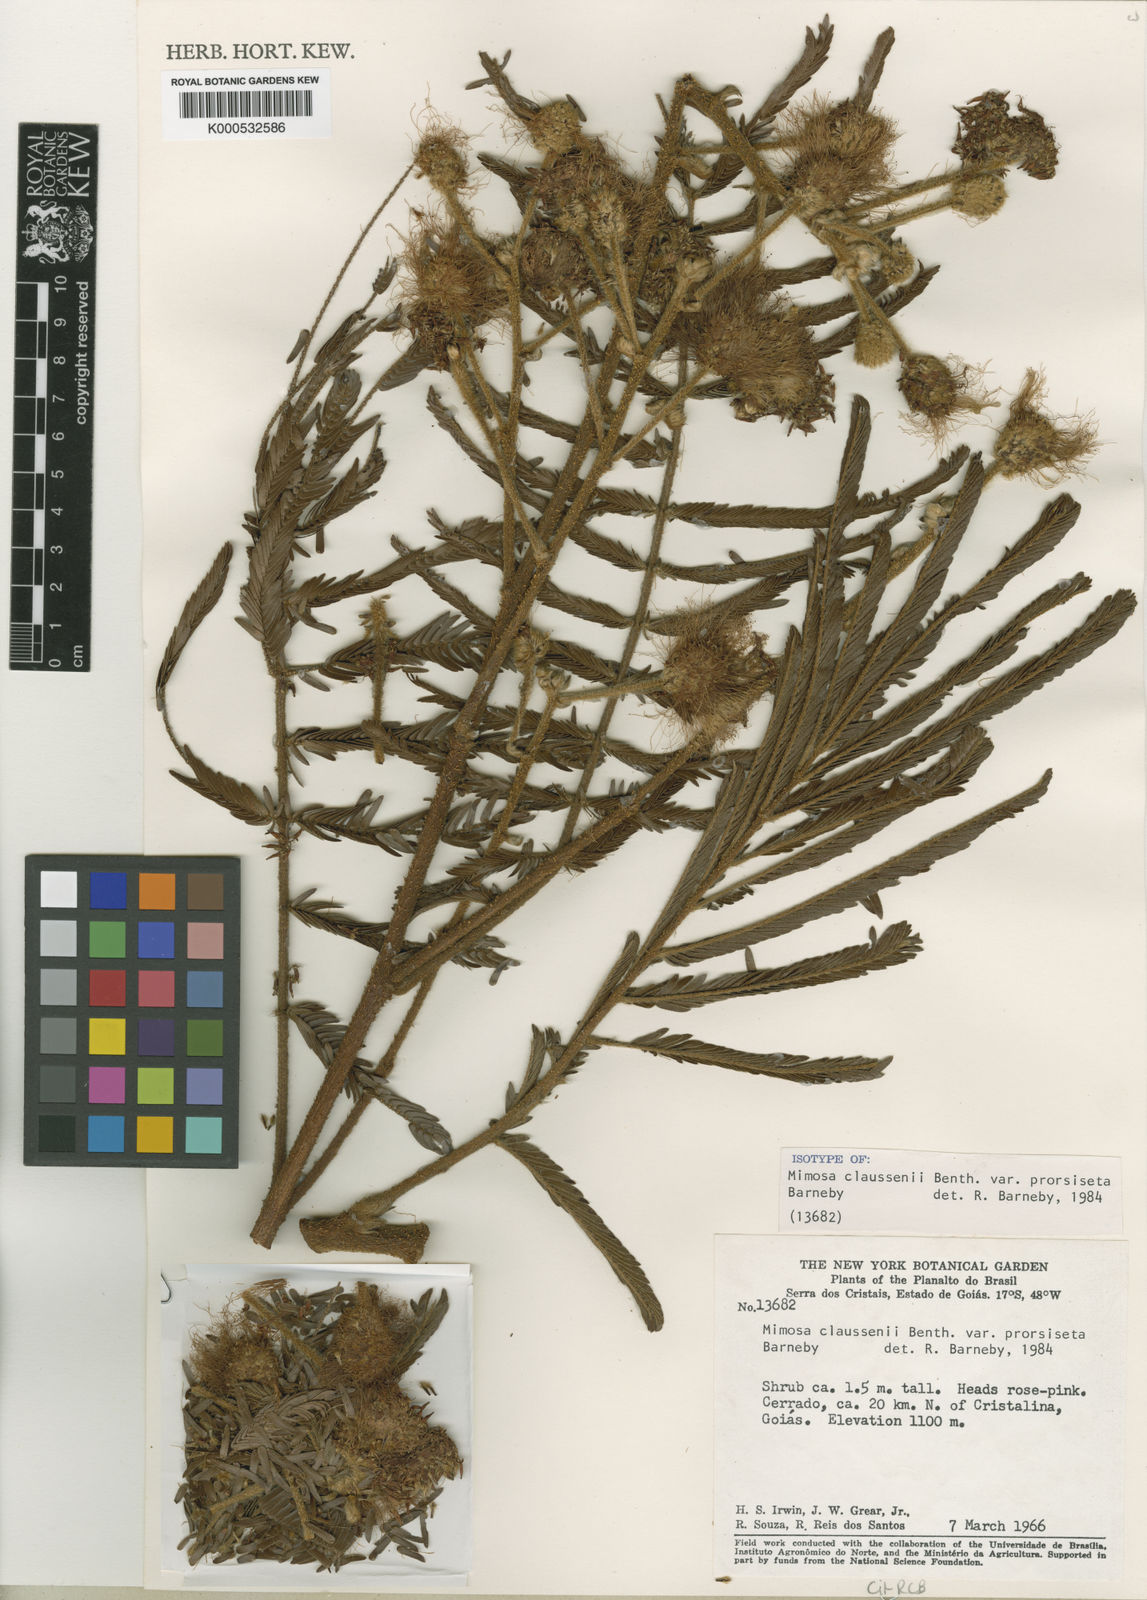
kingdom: Plantae
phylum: Tracheophyta
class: Magnoliopsida
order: Fabales
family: Fabaceae
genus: Mimosa
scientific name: Mimosa claussenii
